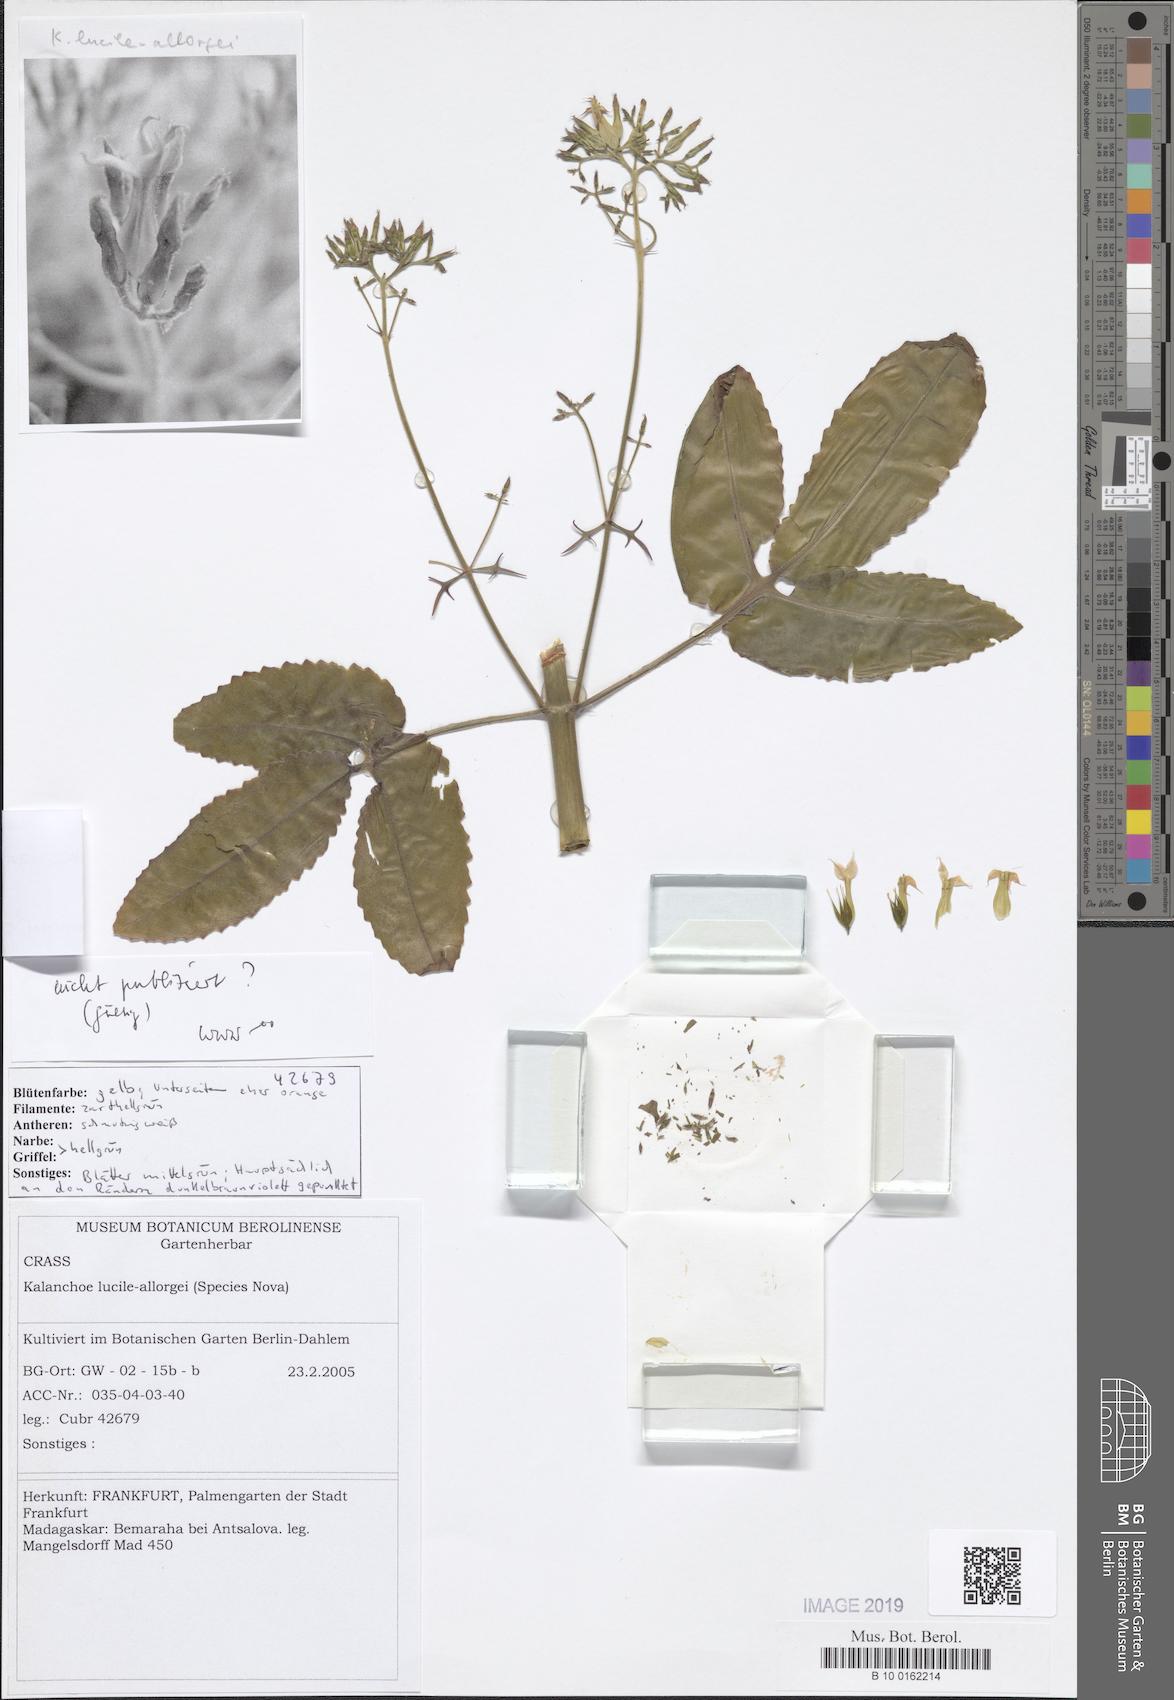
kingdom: Plantae
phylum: Tracheophyta
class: Magnoliopsida
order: Saxifragales
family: Crassulaceae
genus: Kalanchoe
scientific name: Kalanchoe antennifera
